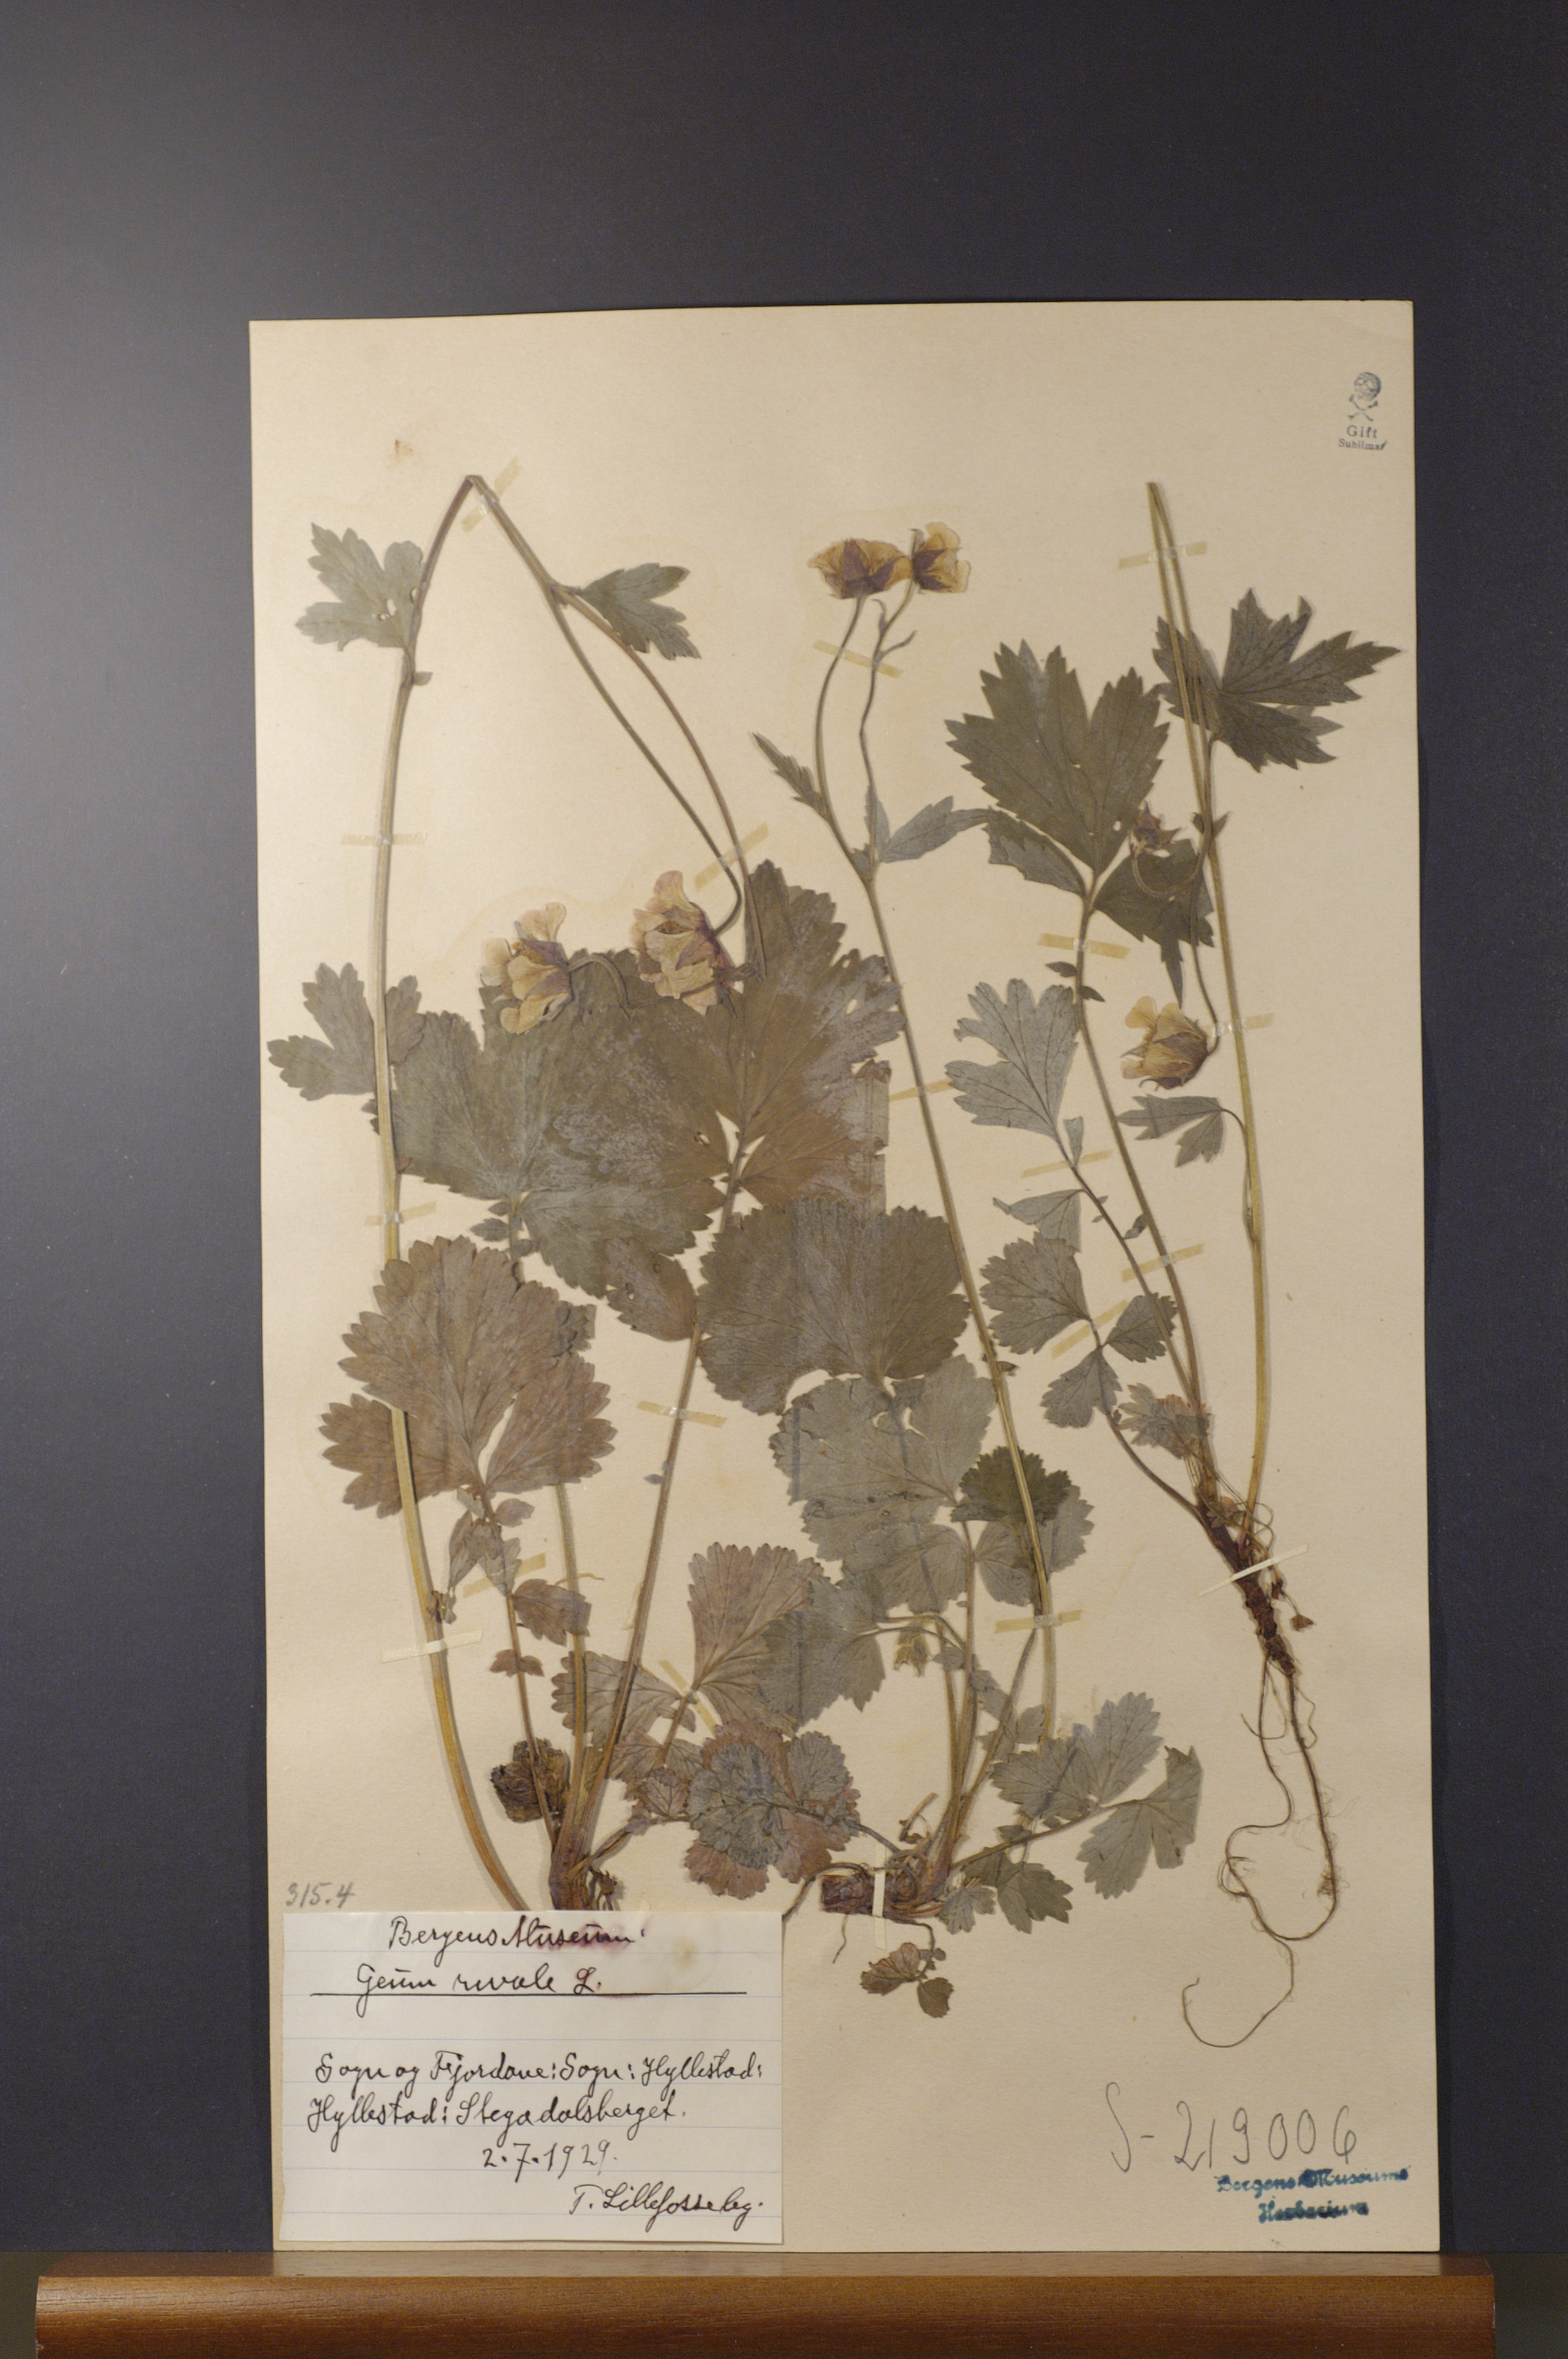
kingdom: Plantae
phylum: Tracheophyta
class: Magnoliopsida
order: Rosales
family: Rosaceae
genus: Geum
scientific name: Geum rivale
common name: Water avens
